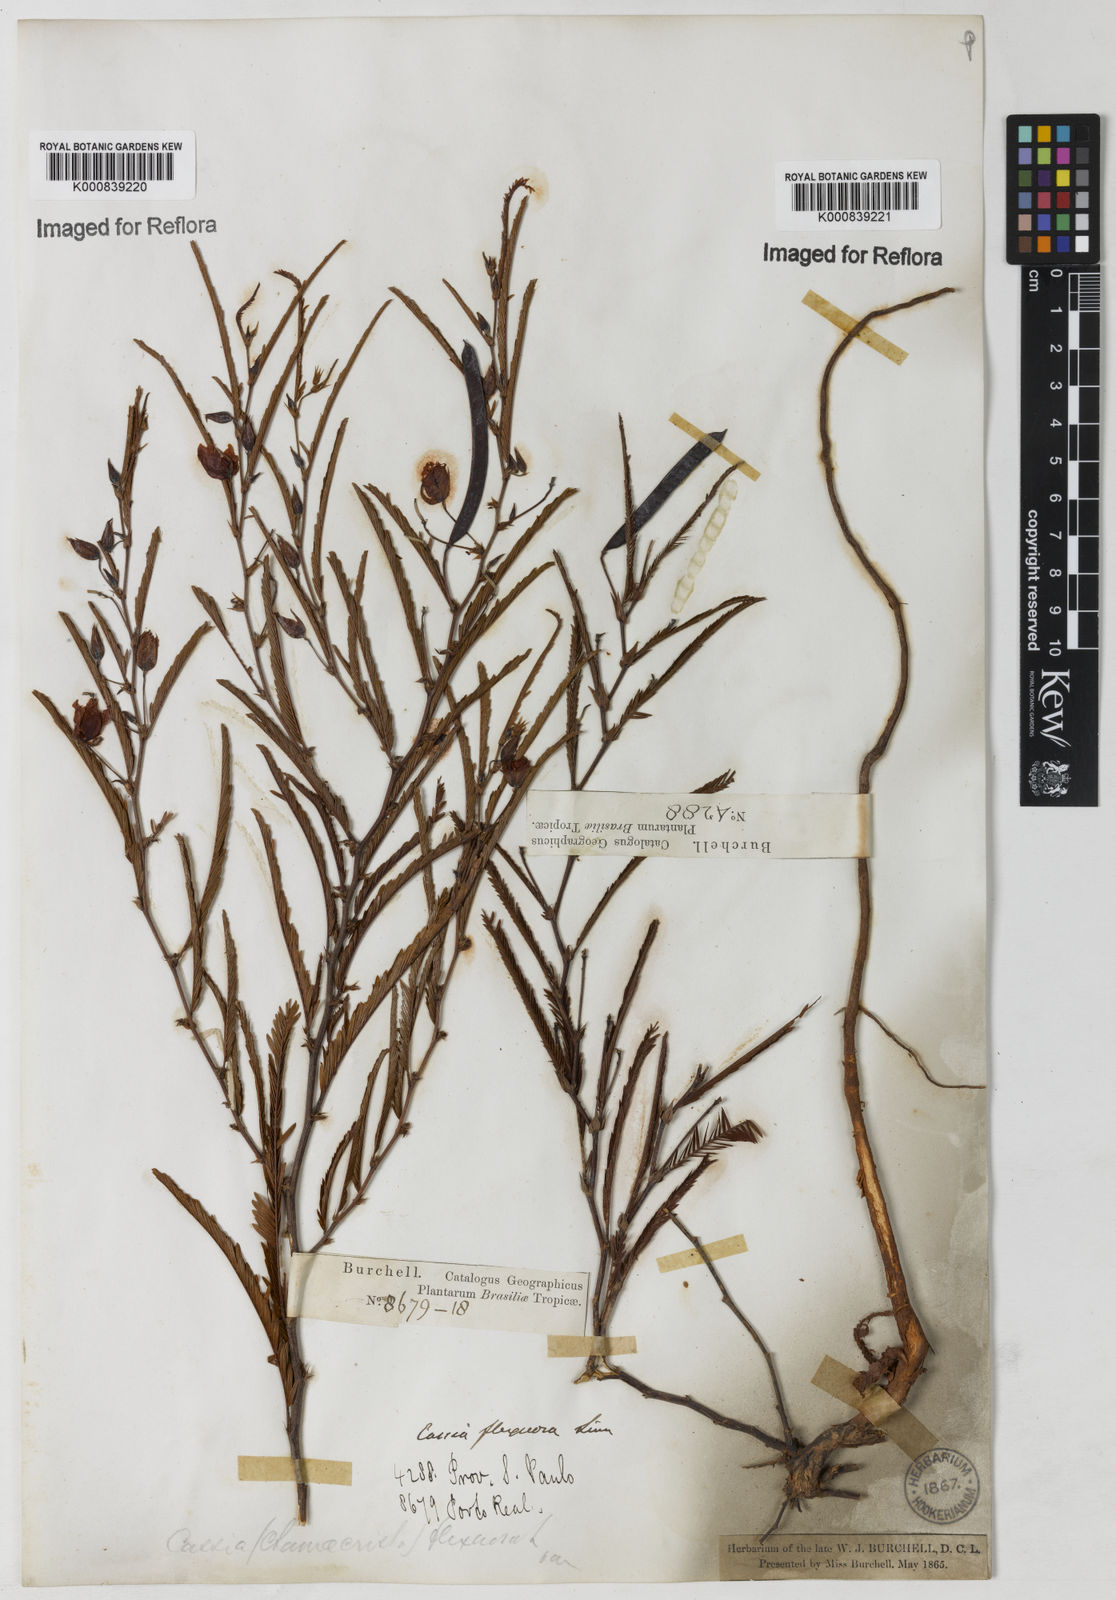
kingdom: Plantae
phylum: Tracheophyta
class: Magnoliopsida
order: Fabales
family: Fabaceae
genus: Chamaecrista
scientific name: Chamaecrista flexuosa
